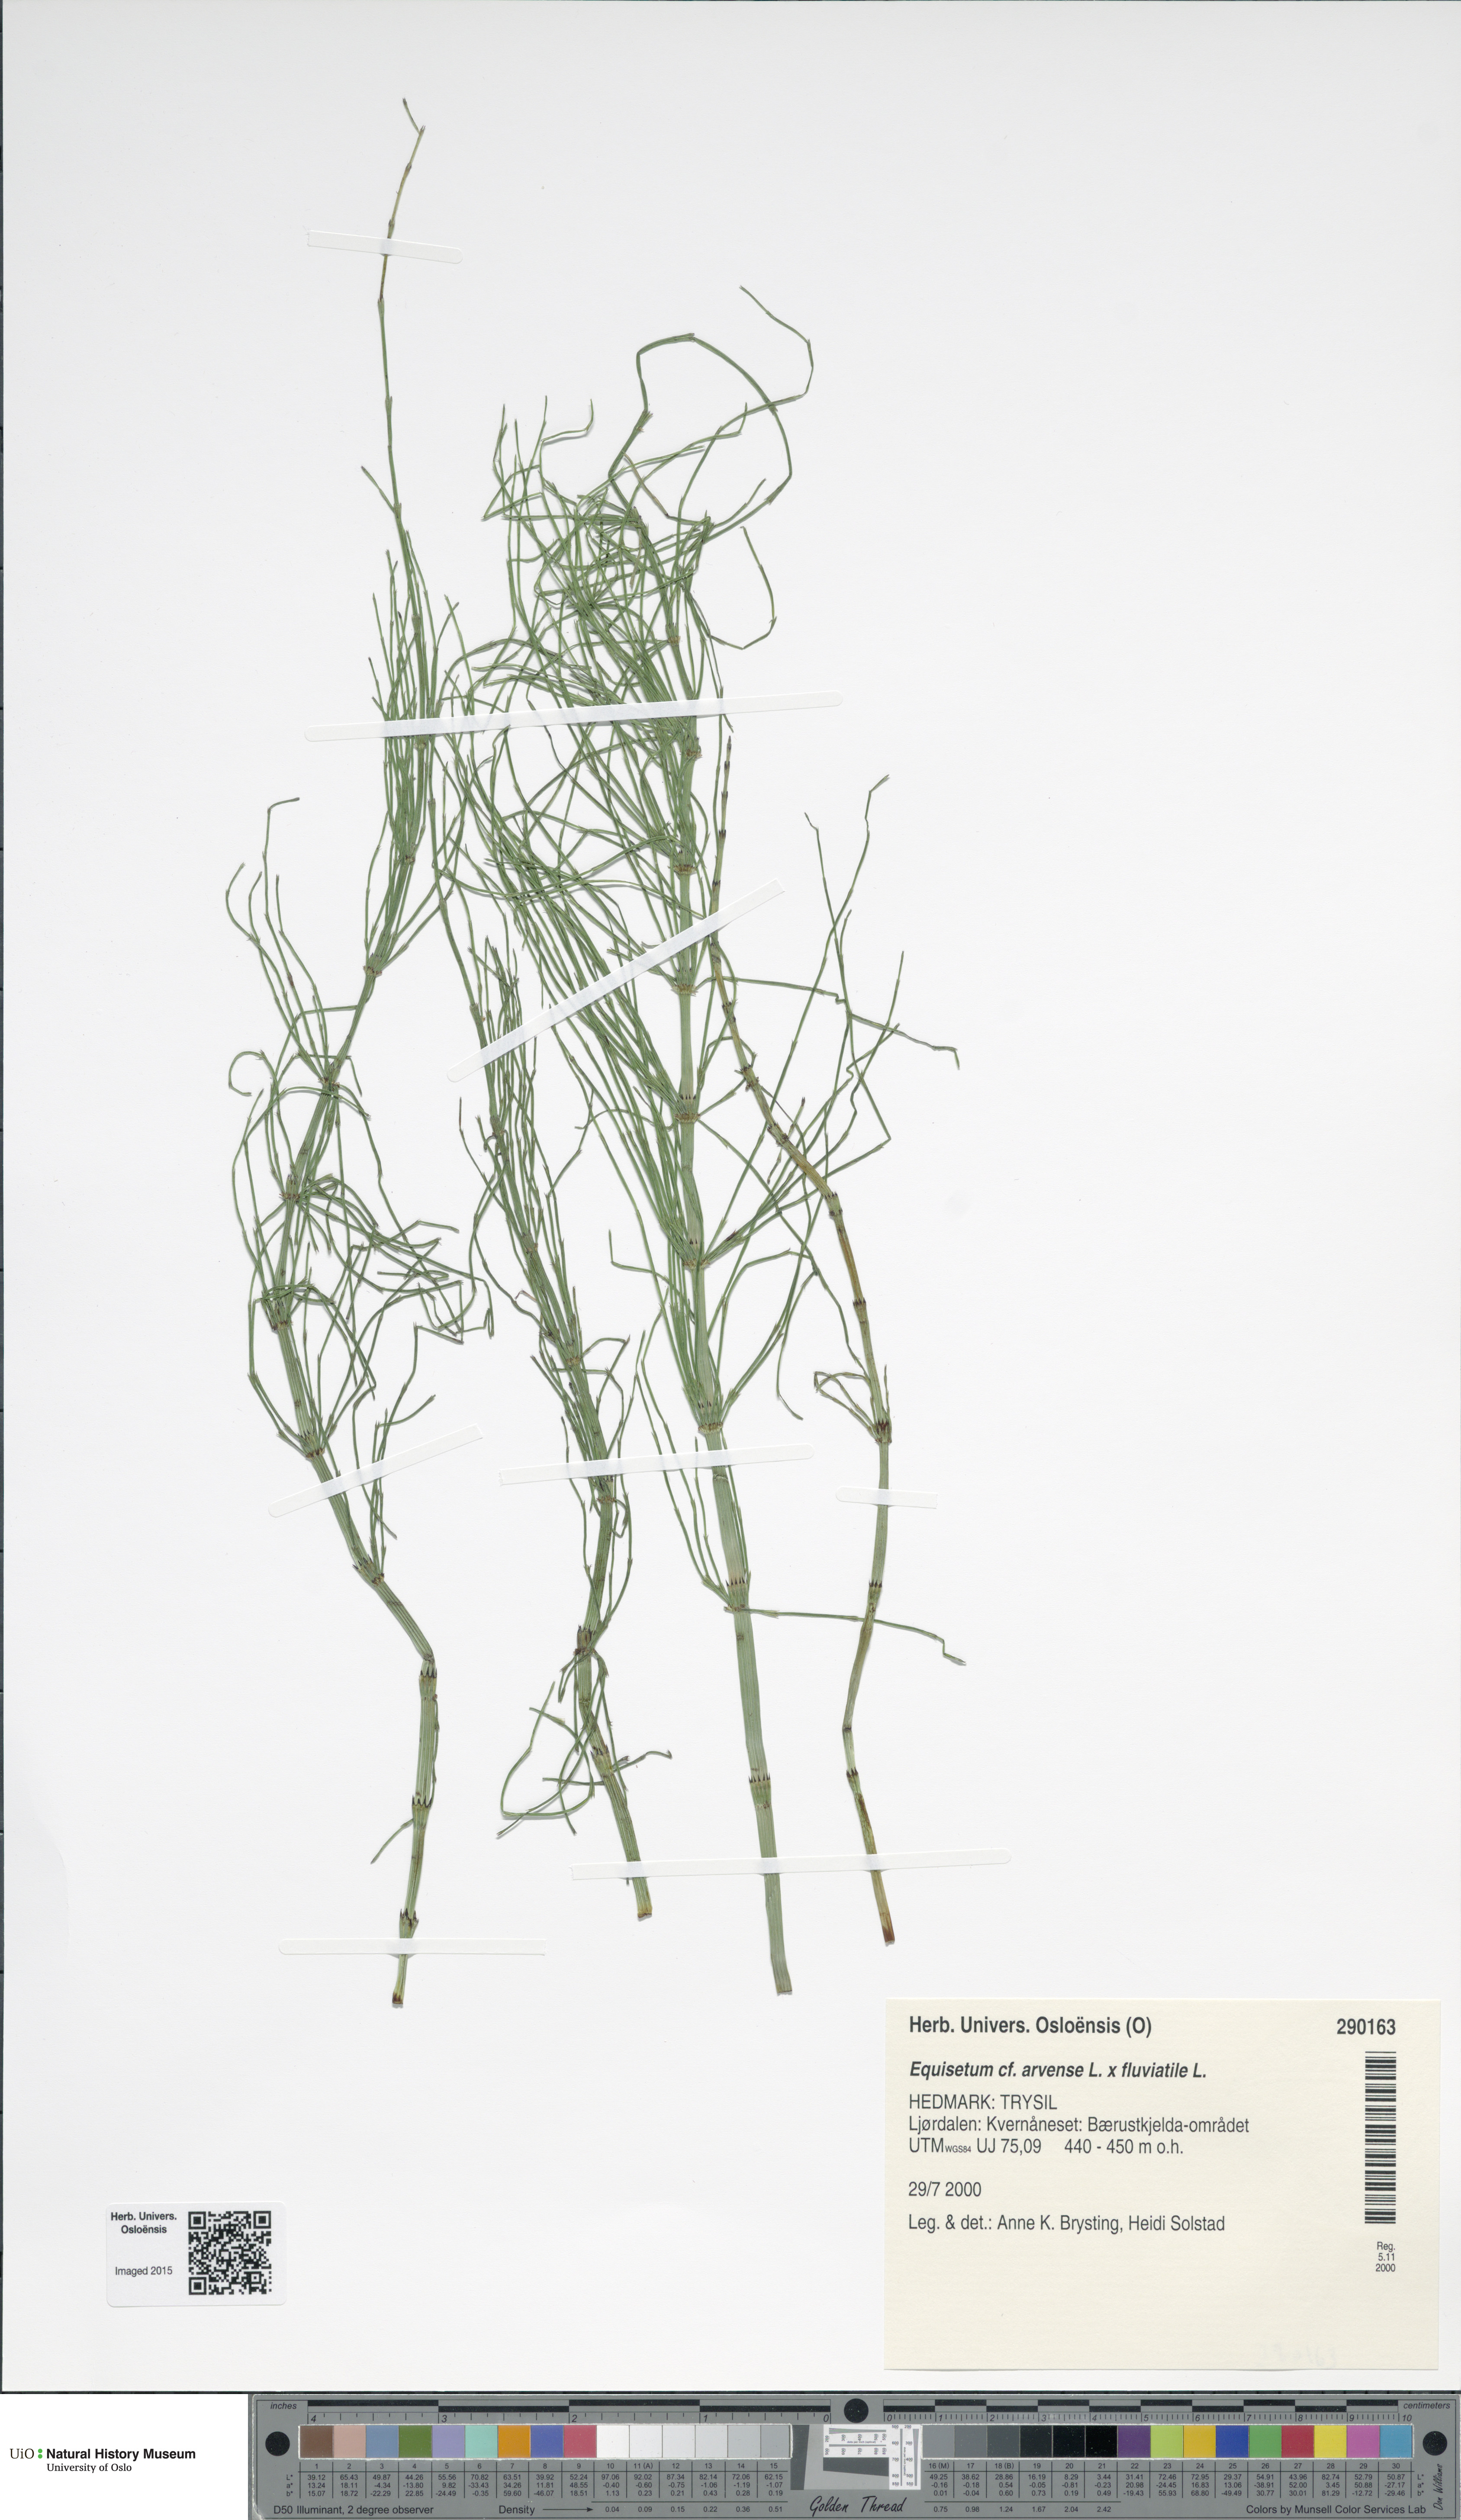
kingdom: Plantae
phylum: Tracheophyta
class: Polypodiopsida
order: Equisetales
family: Equisetaceae
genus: Equisetum
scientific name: Equisetum
